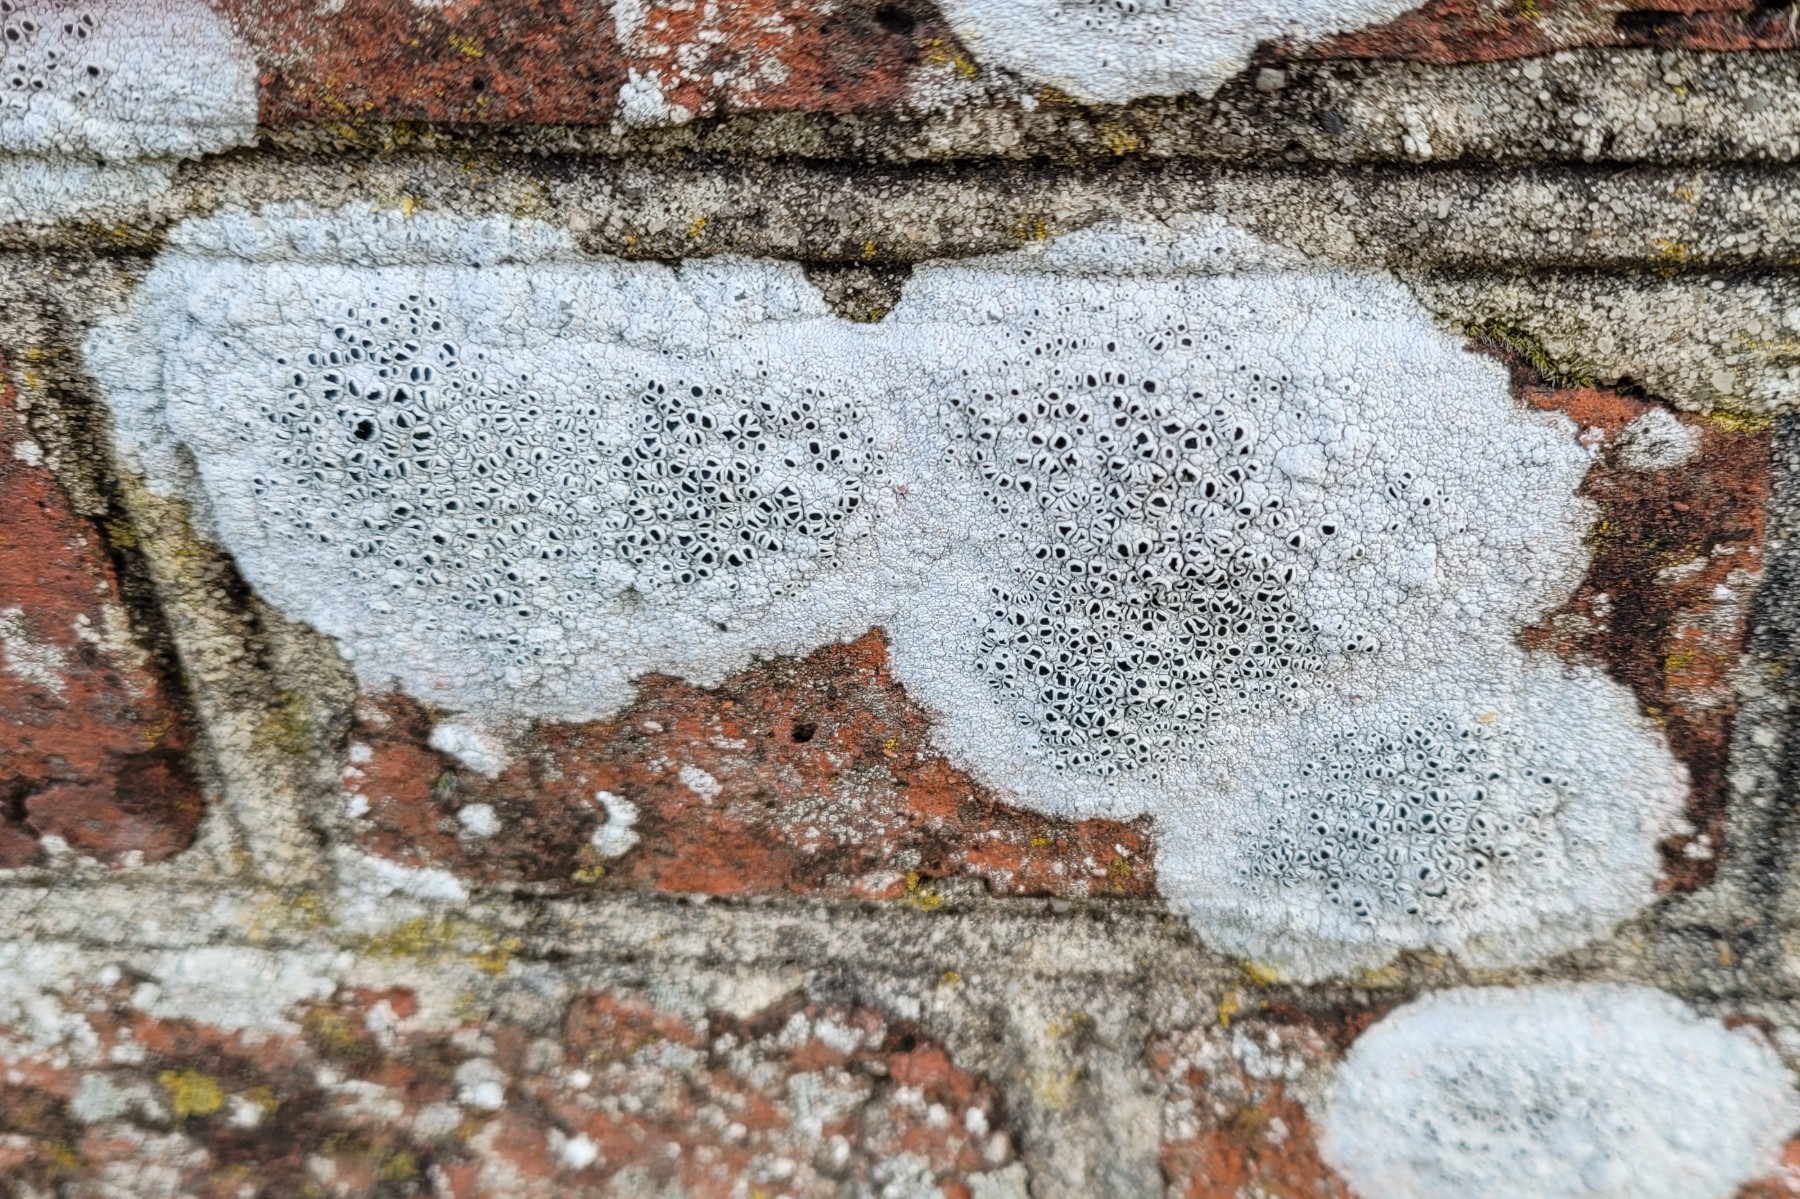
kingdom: Fungi
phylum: Ascomycota
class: Lecanoromycetes
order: Lecanorales
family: Tephromelataceae
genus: Tephromela
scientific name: Tephromela atra
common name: sortfrugtet kantskivelav
